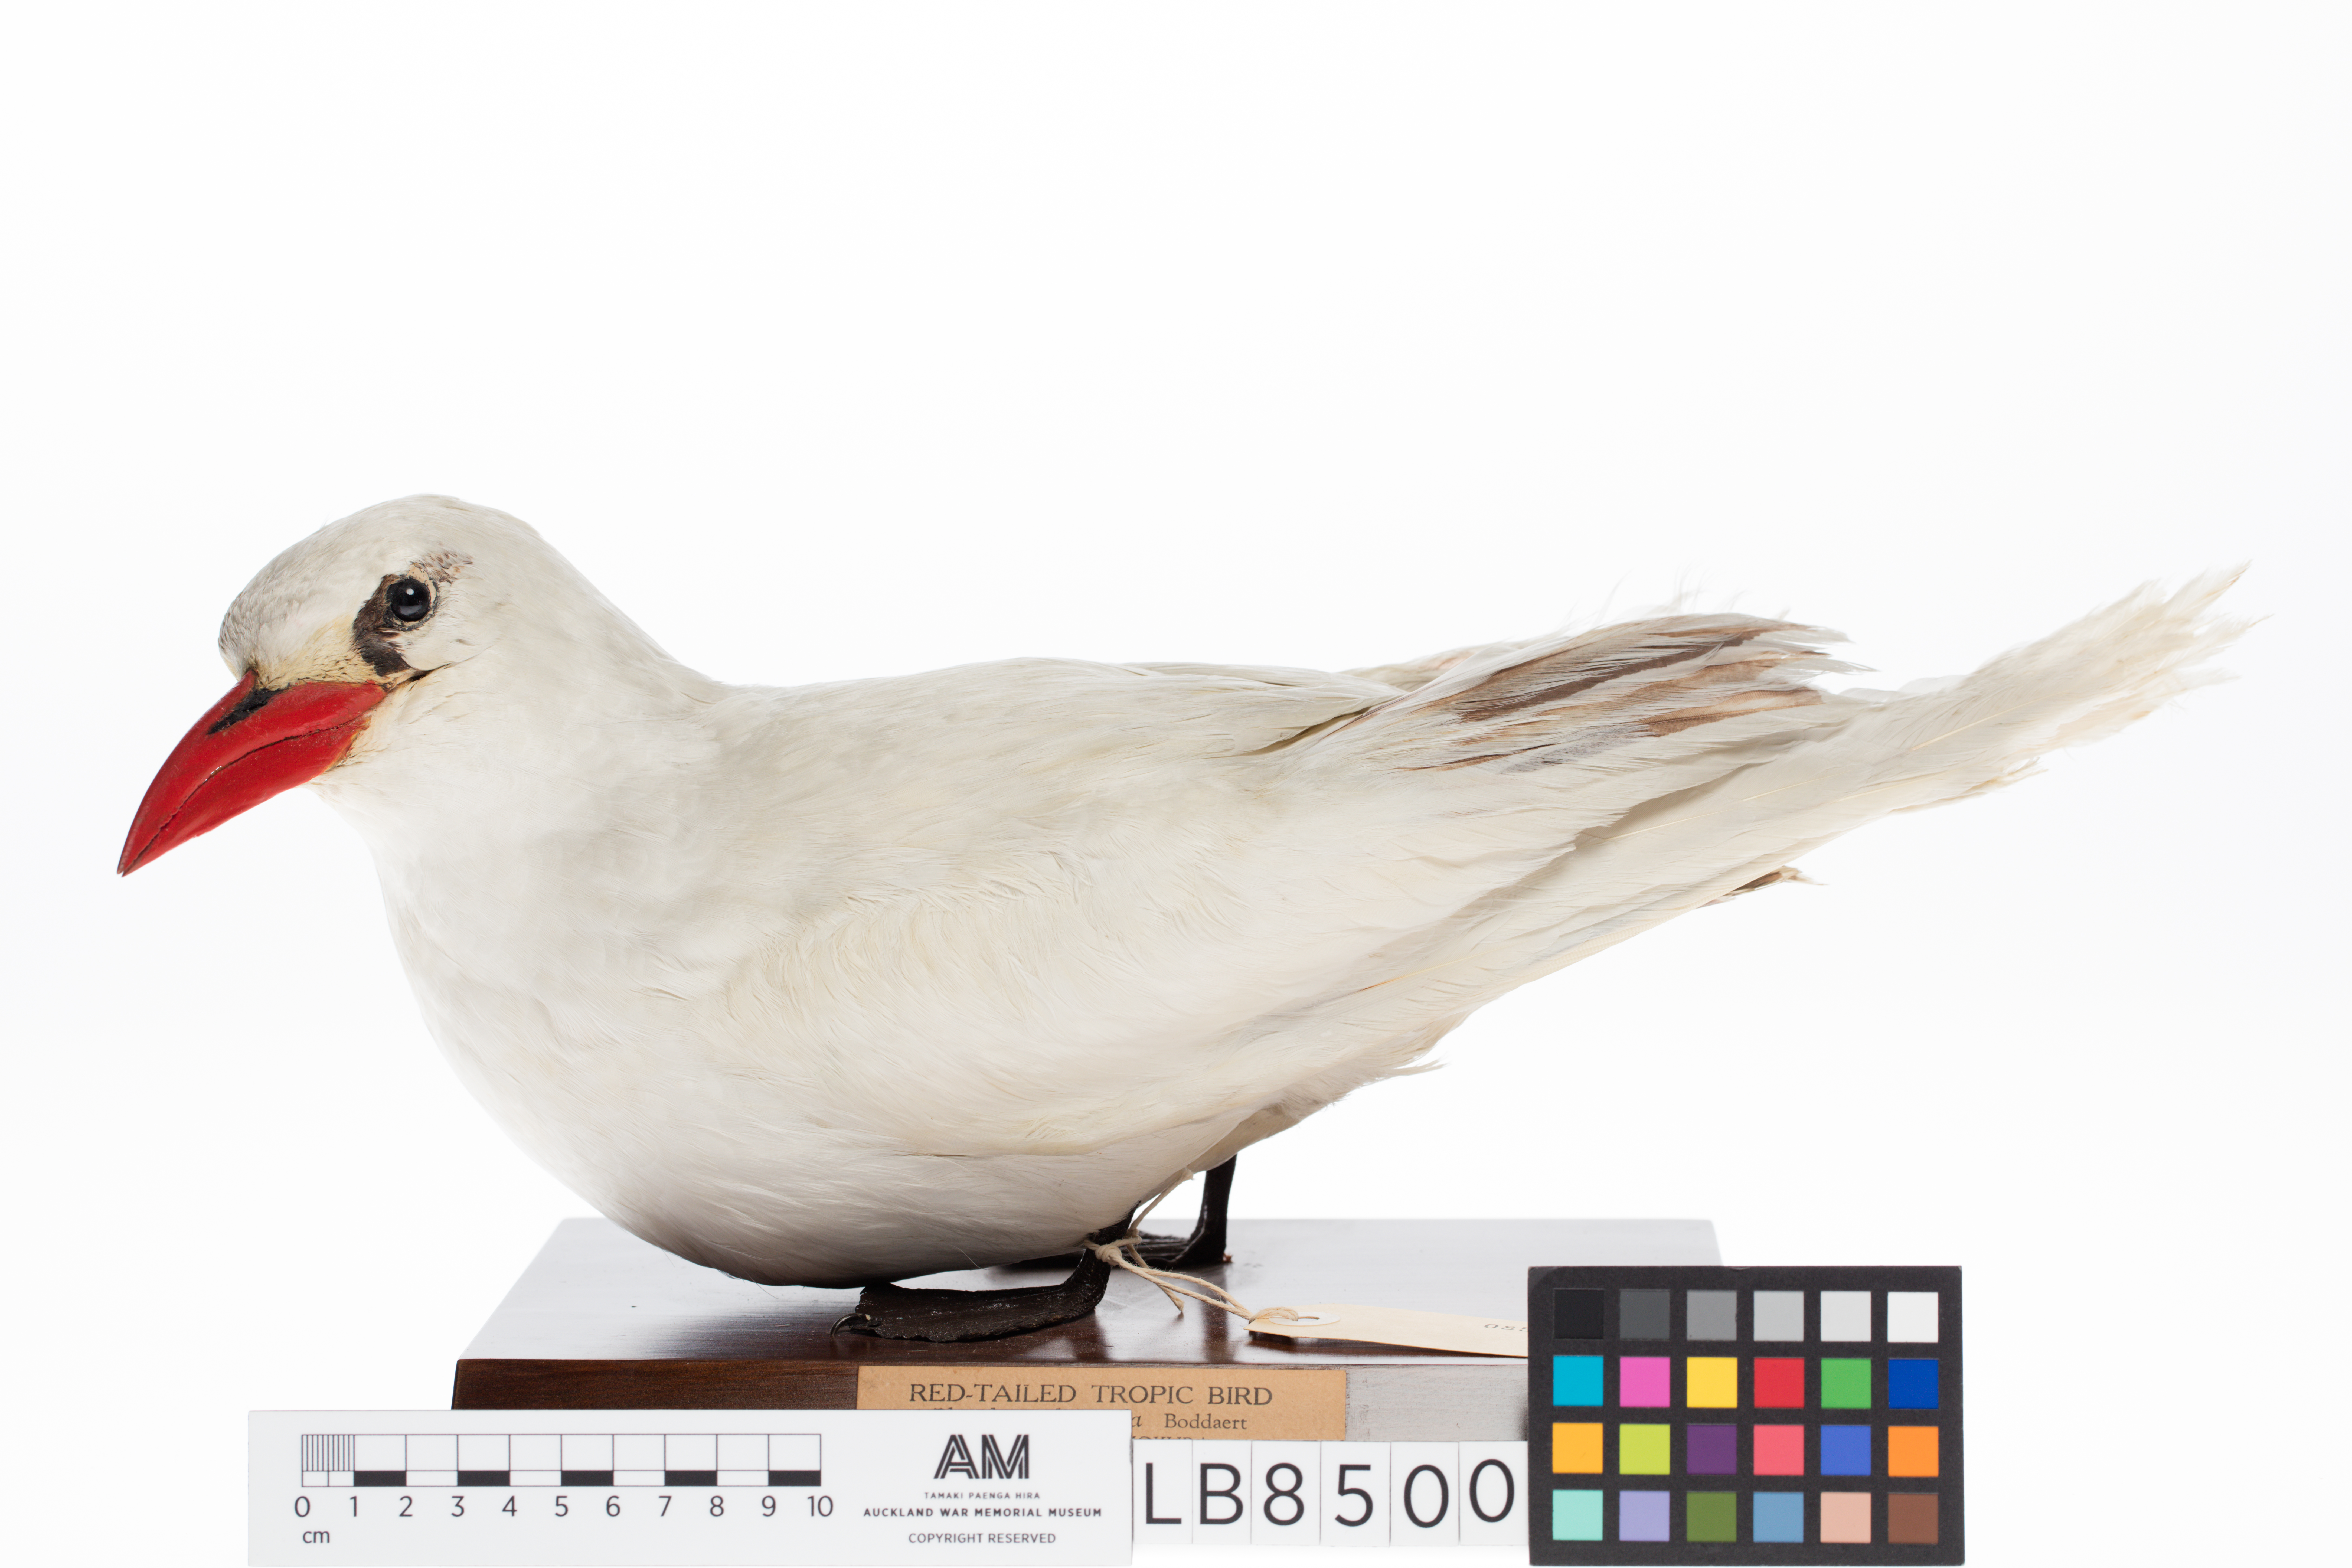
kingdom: Animalia
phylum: Chordata
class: Aves
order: Phaethontiformes
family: Phaethontidae
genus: Phaethon
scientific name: Phaethon rubricauda
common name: Red-tailed tropicbird
